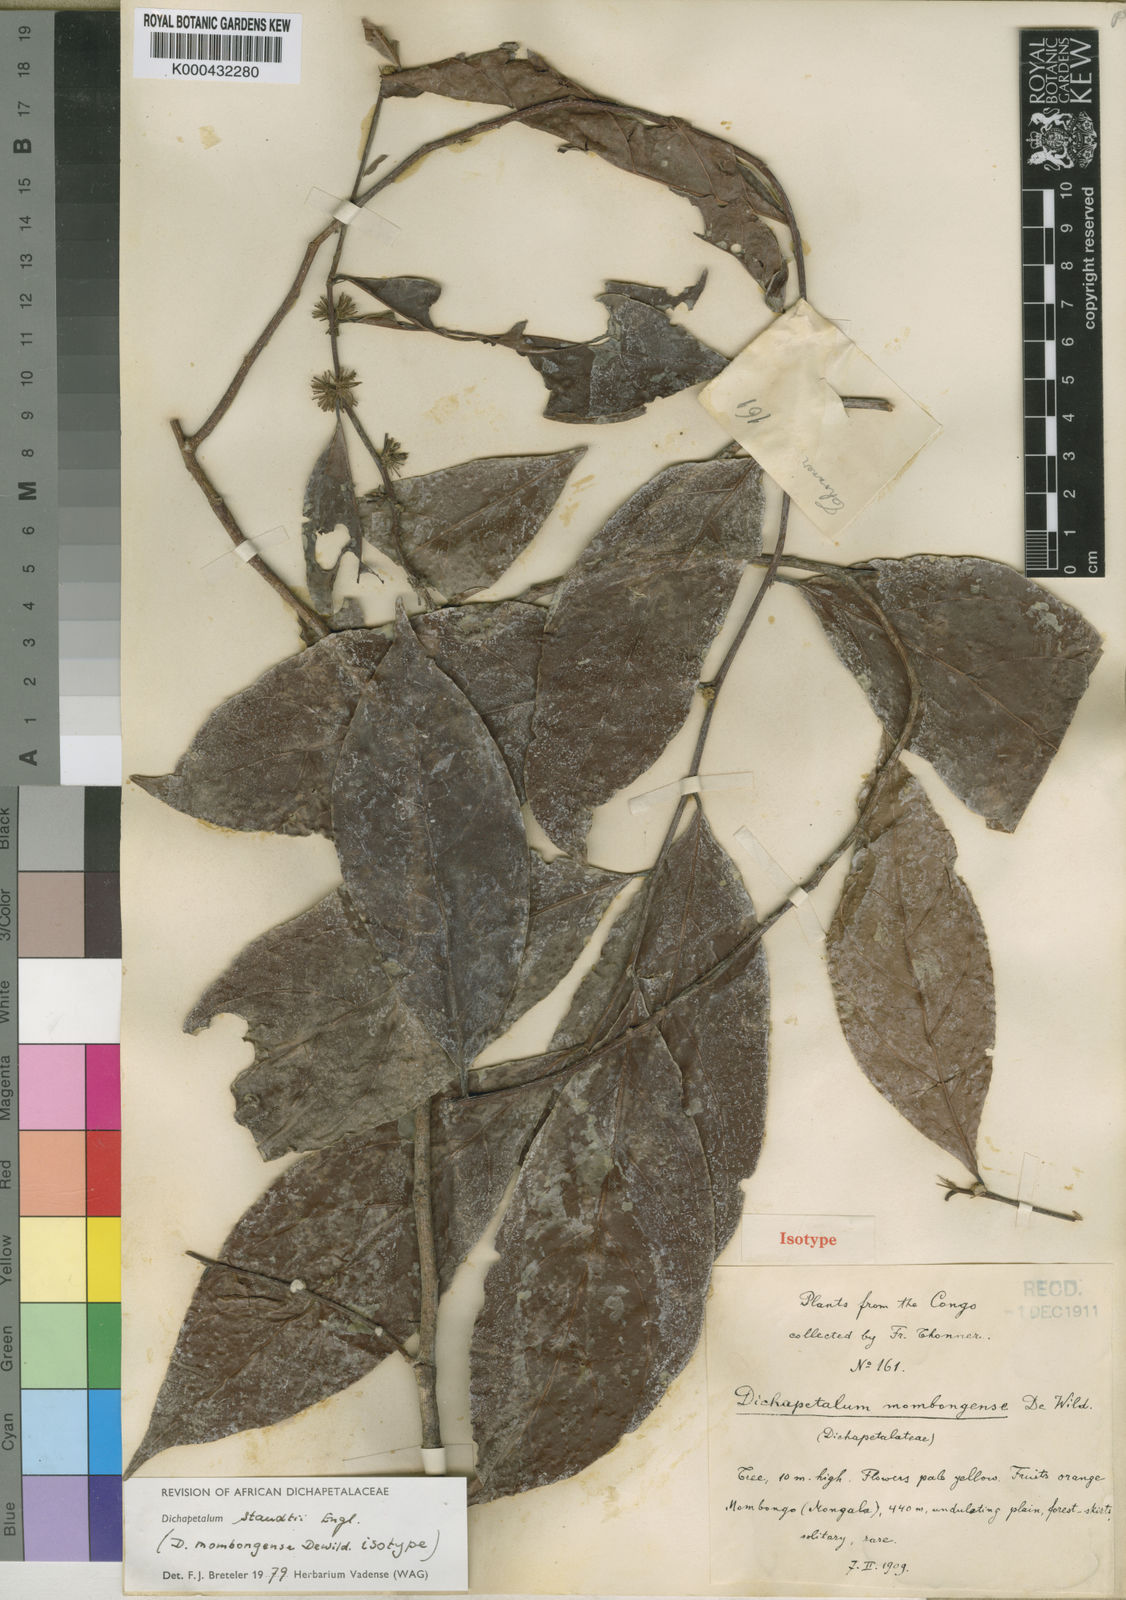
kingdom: Plantae
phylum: Tracheophyta
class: Magnoliopsida
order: Malpighiales
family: Dichapetalaceae
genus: Dichapetalum
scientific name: Dichapetalum staudtii
